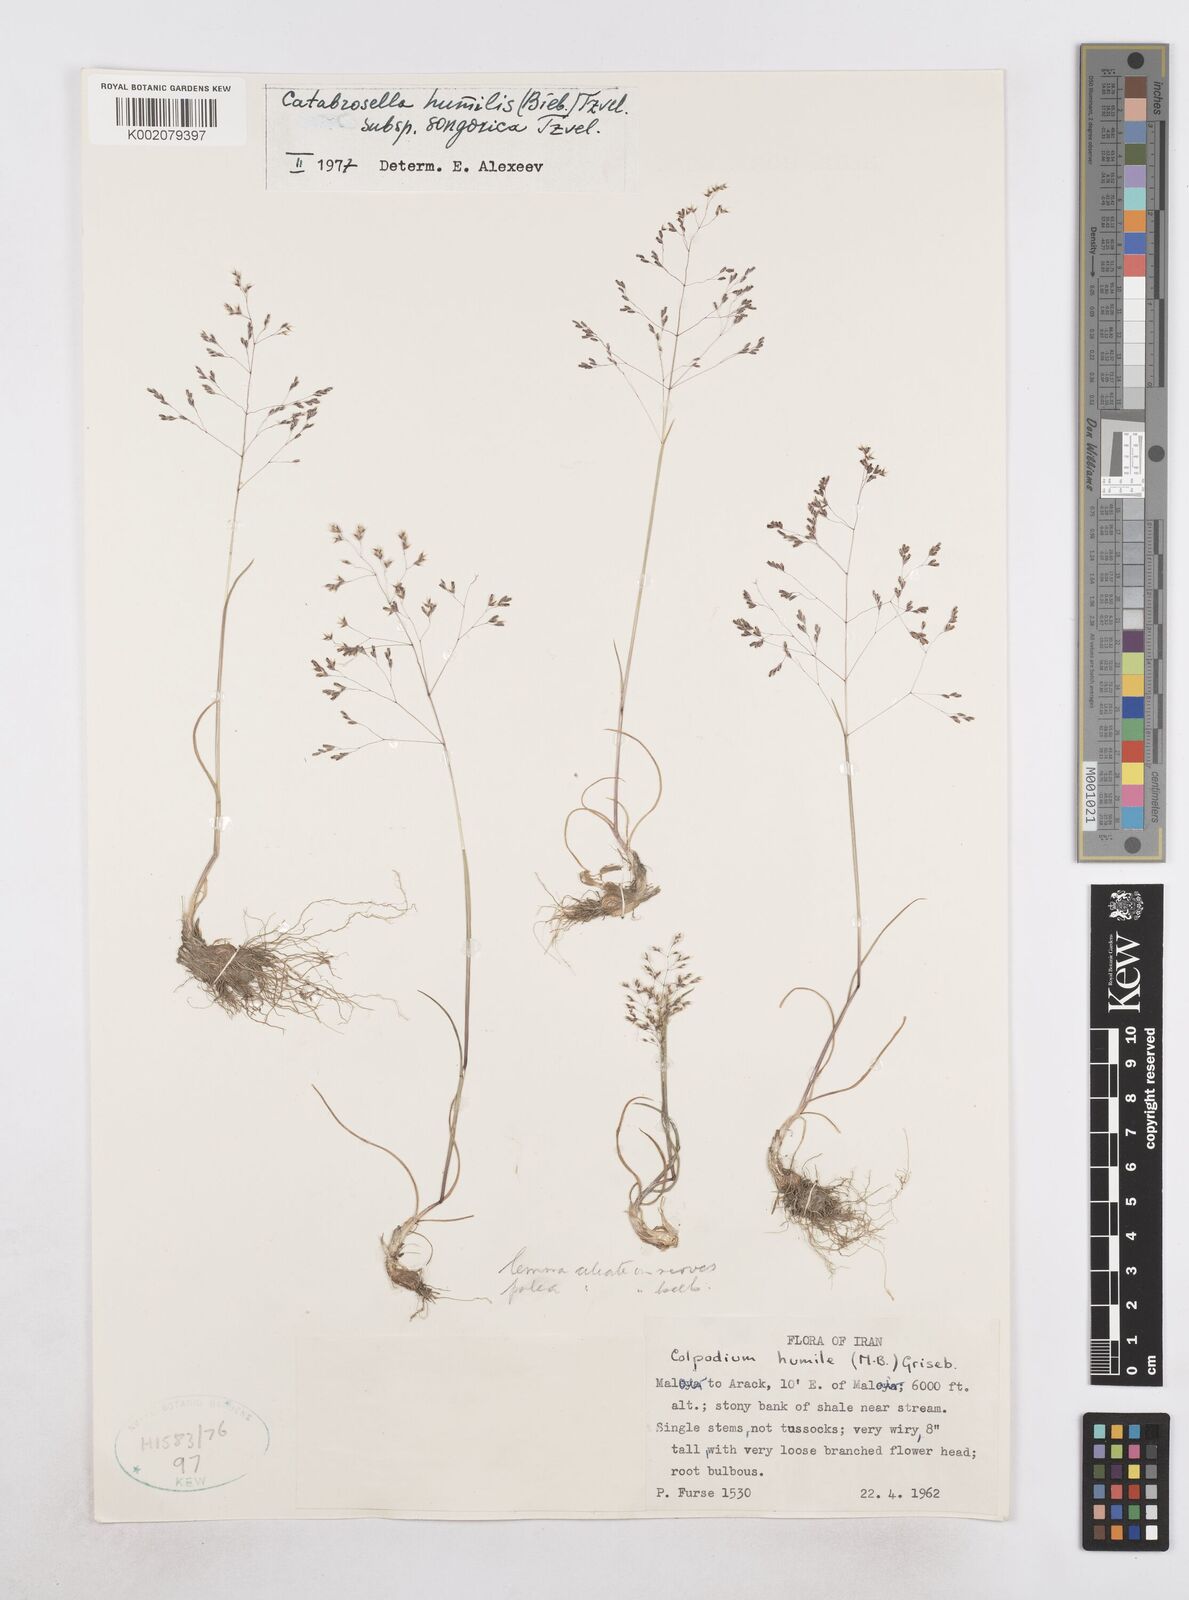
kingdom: Plantae
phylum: Tracheophyta
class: Liliopsida
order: Poales
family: Poaceae
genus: Catabrosella
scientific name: Catabrosella humilis
